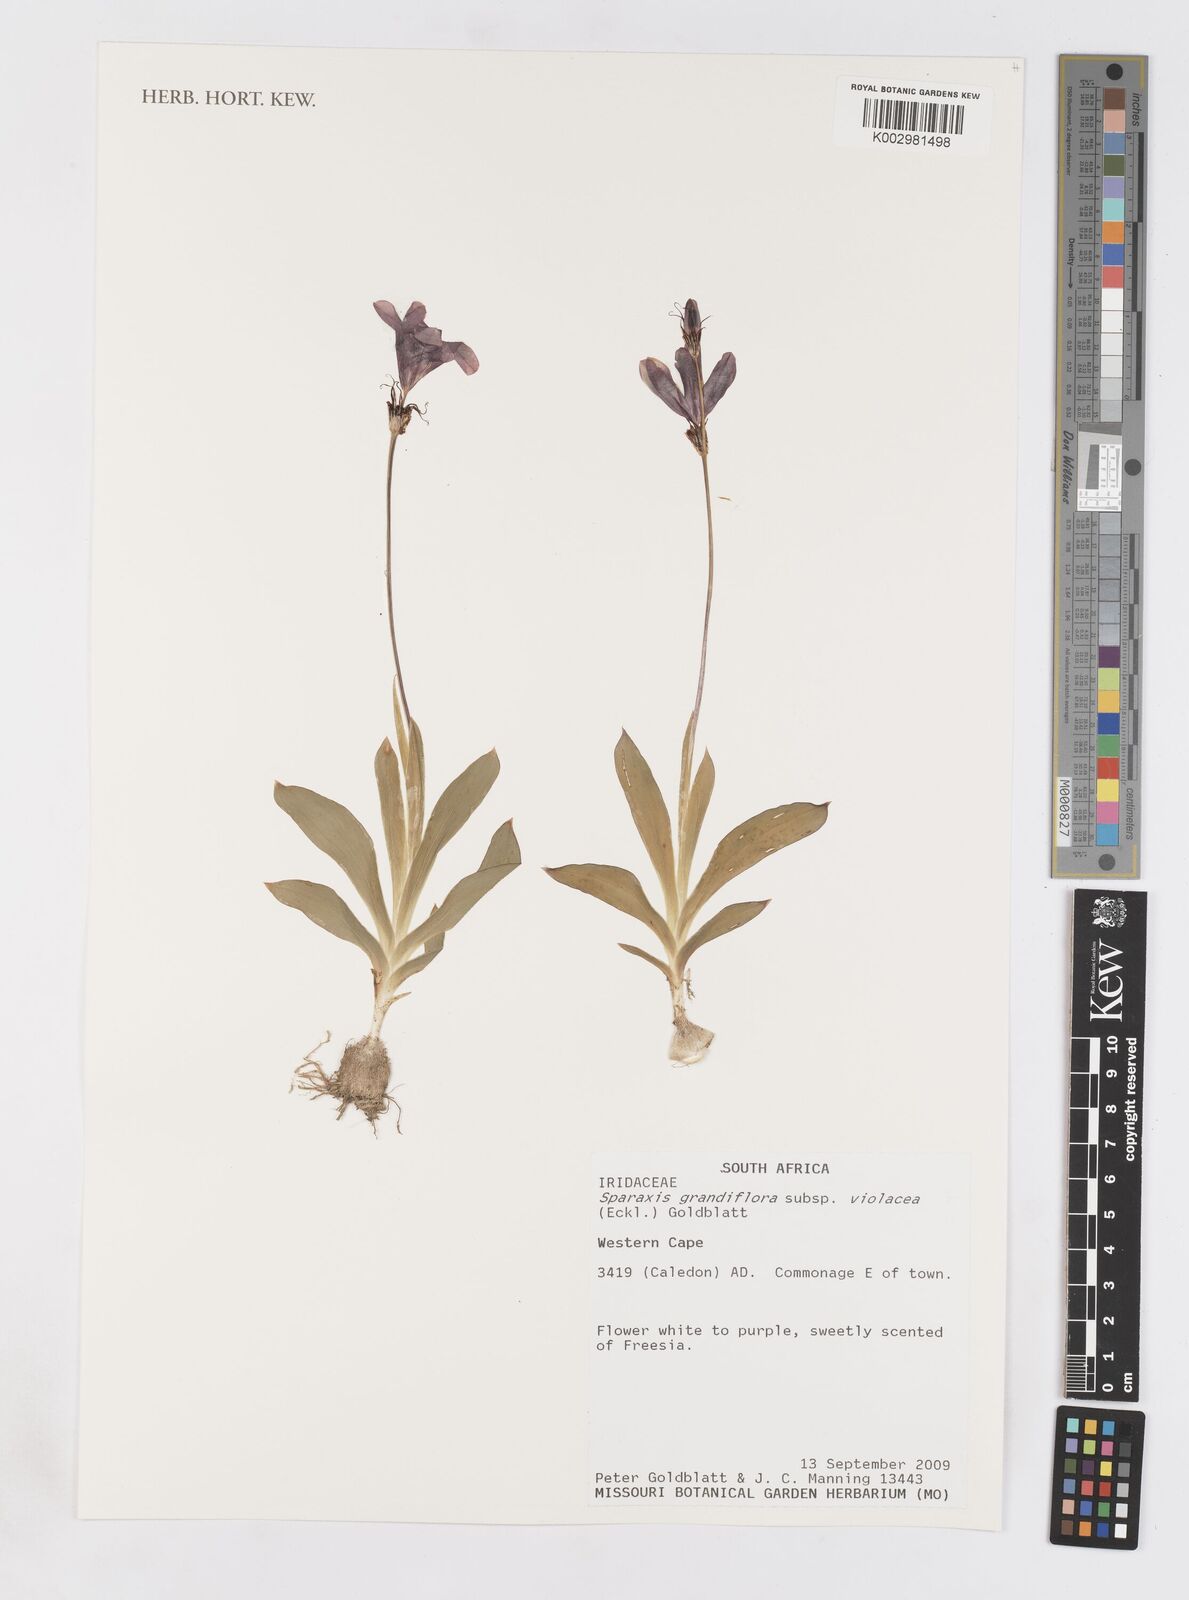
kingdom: Plantae
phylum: Tracheophyta
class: Liliopsida
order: Asparagales
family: Iridaceae
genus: Sparaxis
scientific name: Sparaxis grandiflora
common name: Plain harlequin-flower
